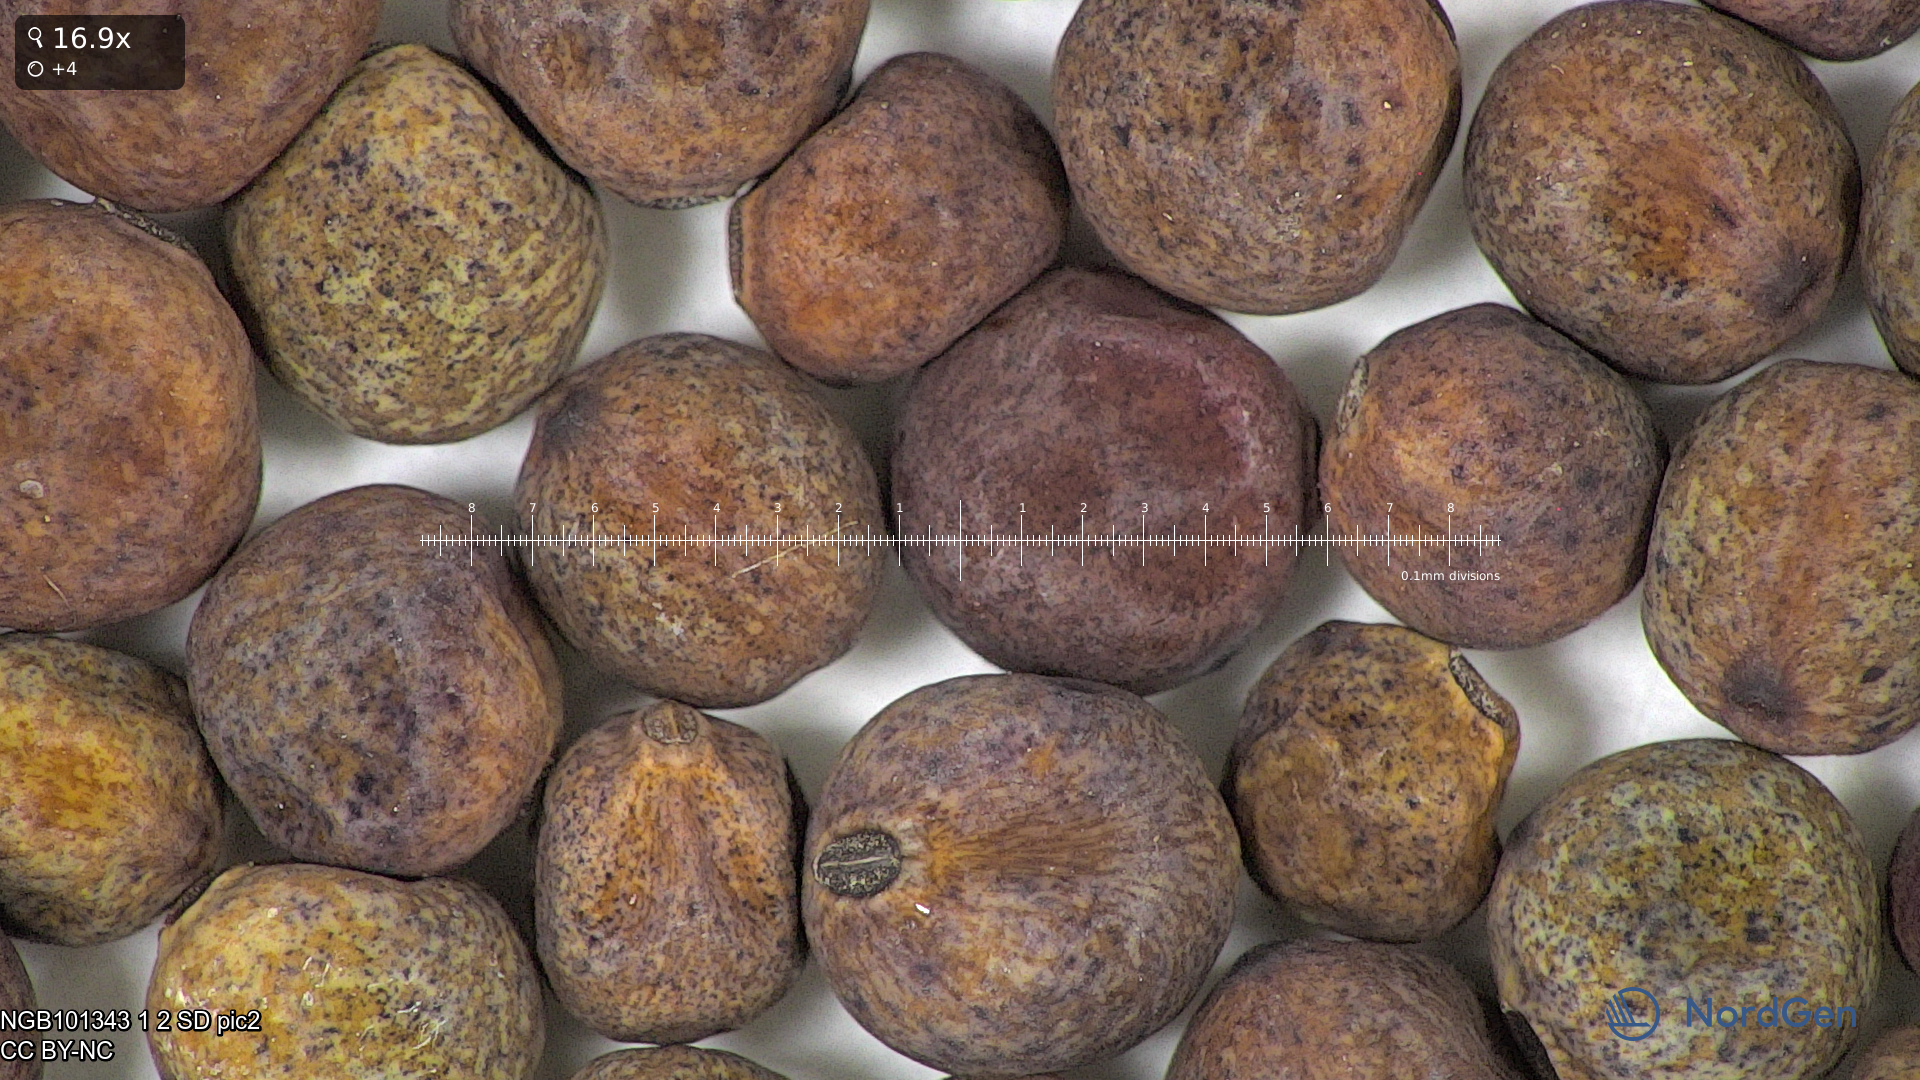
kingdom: Plantae
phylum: Tracheophyta
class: Magnoliopsida
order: Fabales
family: Fabaceae
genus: Lathyrus
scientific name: Lathyrus oleraceus
